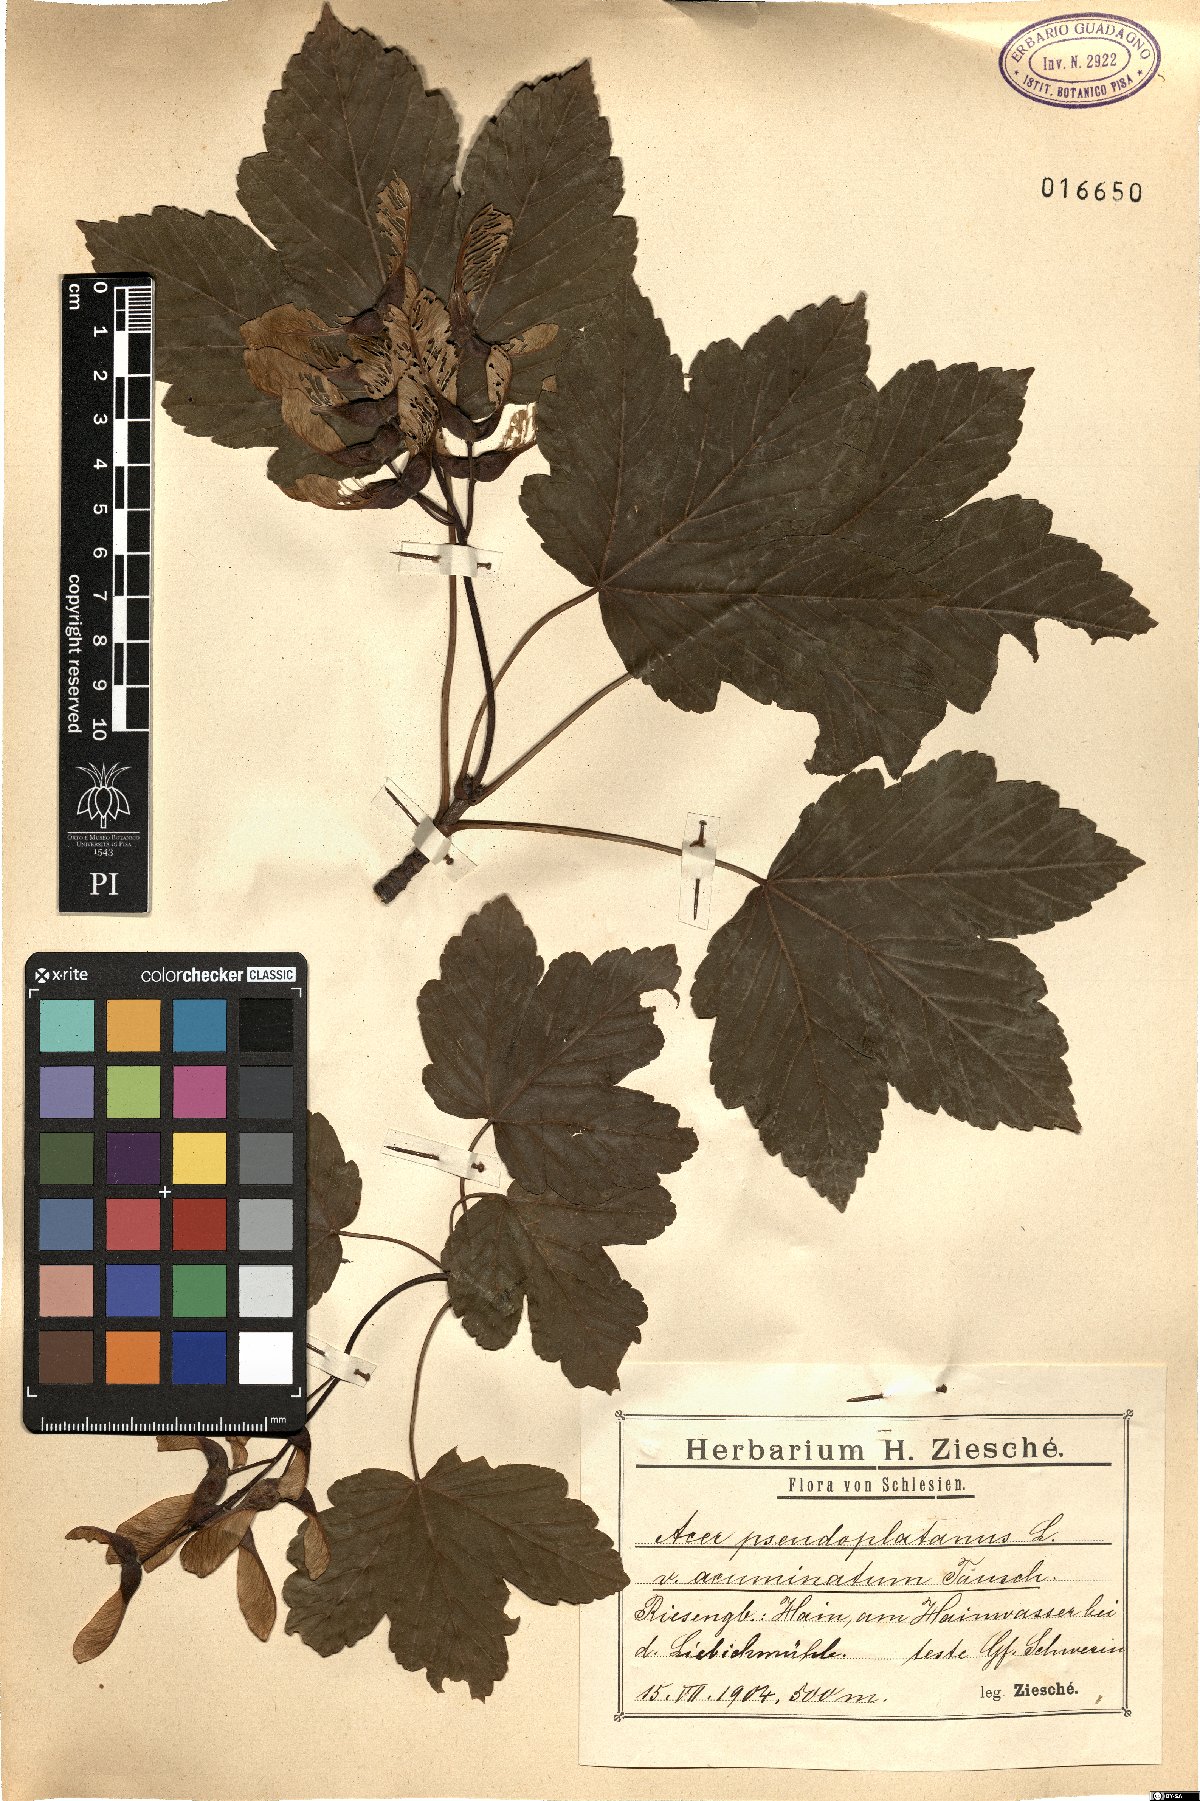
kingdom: Plantae
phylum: Tracheophyta
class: Magnoliopsida
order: Sapindales
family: Sapindaceae
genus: Acer
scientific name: Acer pseudoplatanus
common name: Sycamore
